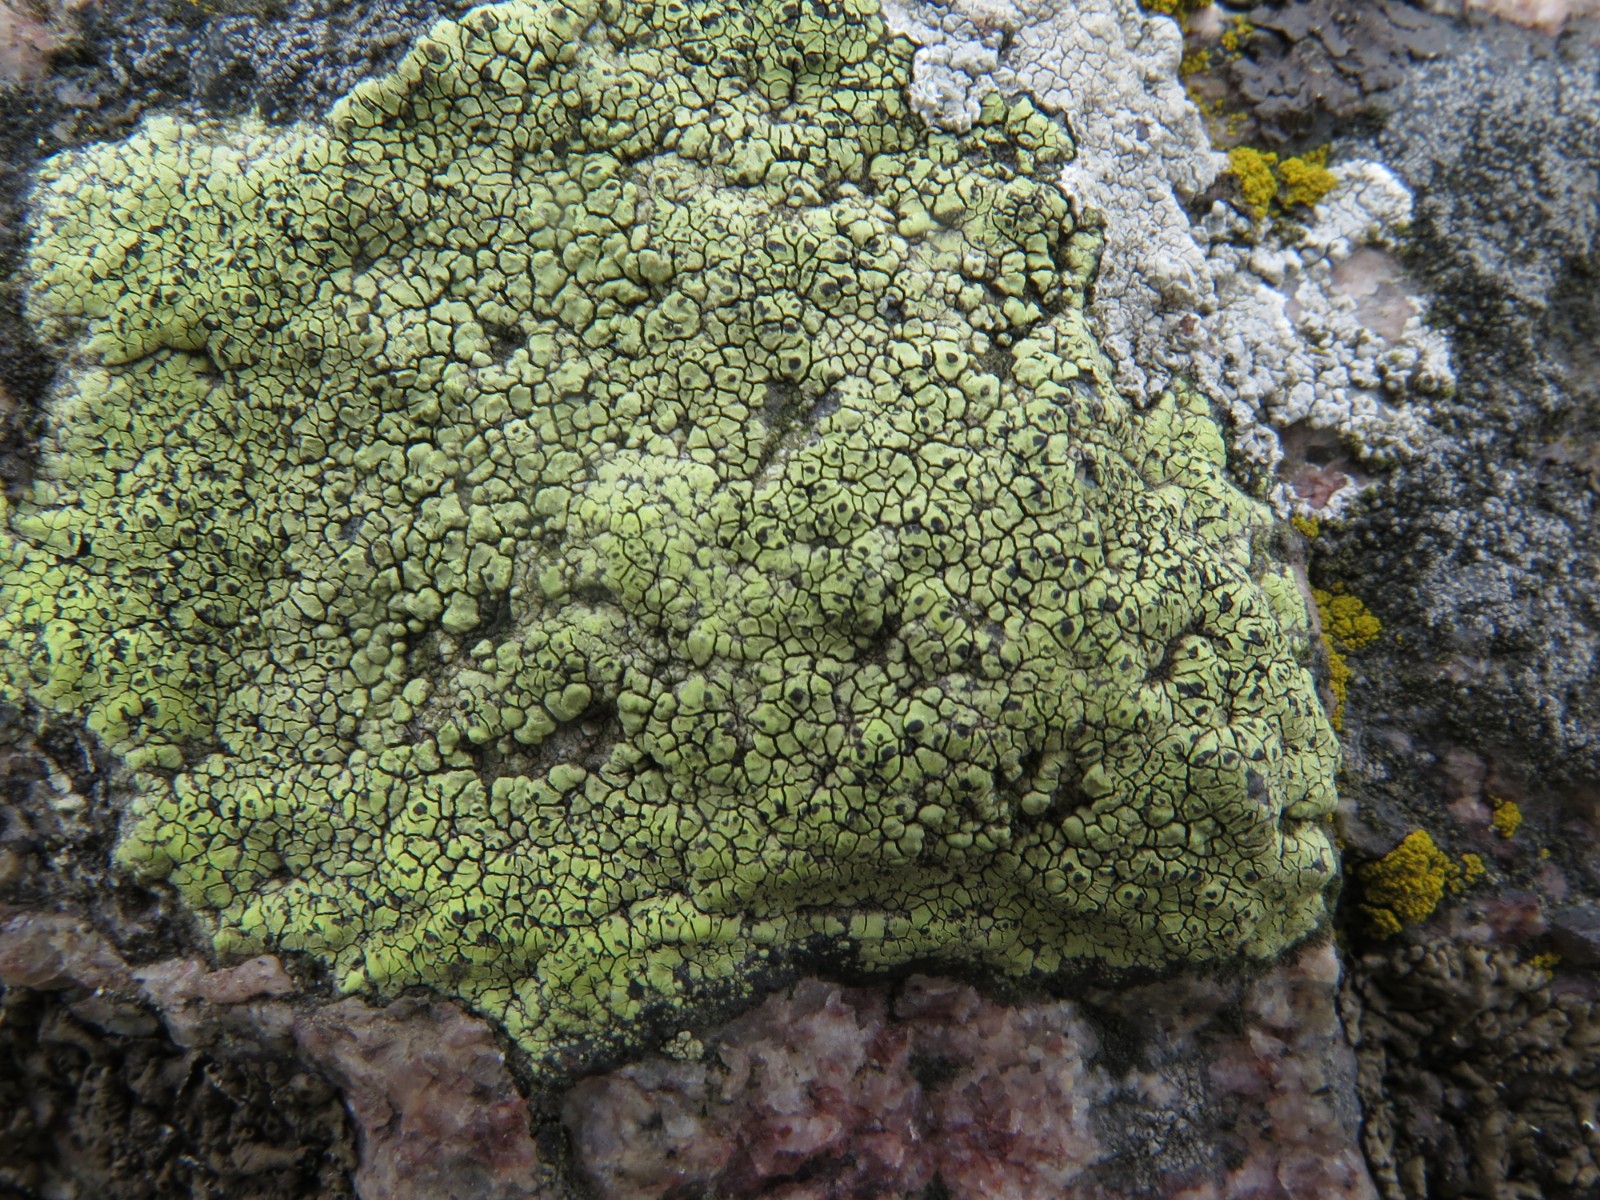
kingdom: Fungi
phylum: Ascomycota
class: Lecanoromycetes
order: Rhizocarpales
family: Rhizocarpaceae
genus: Rhizocarpon
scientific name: Rhizocarpon lecanorinum
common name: krave-landkortlav
